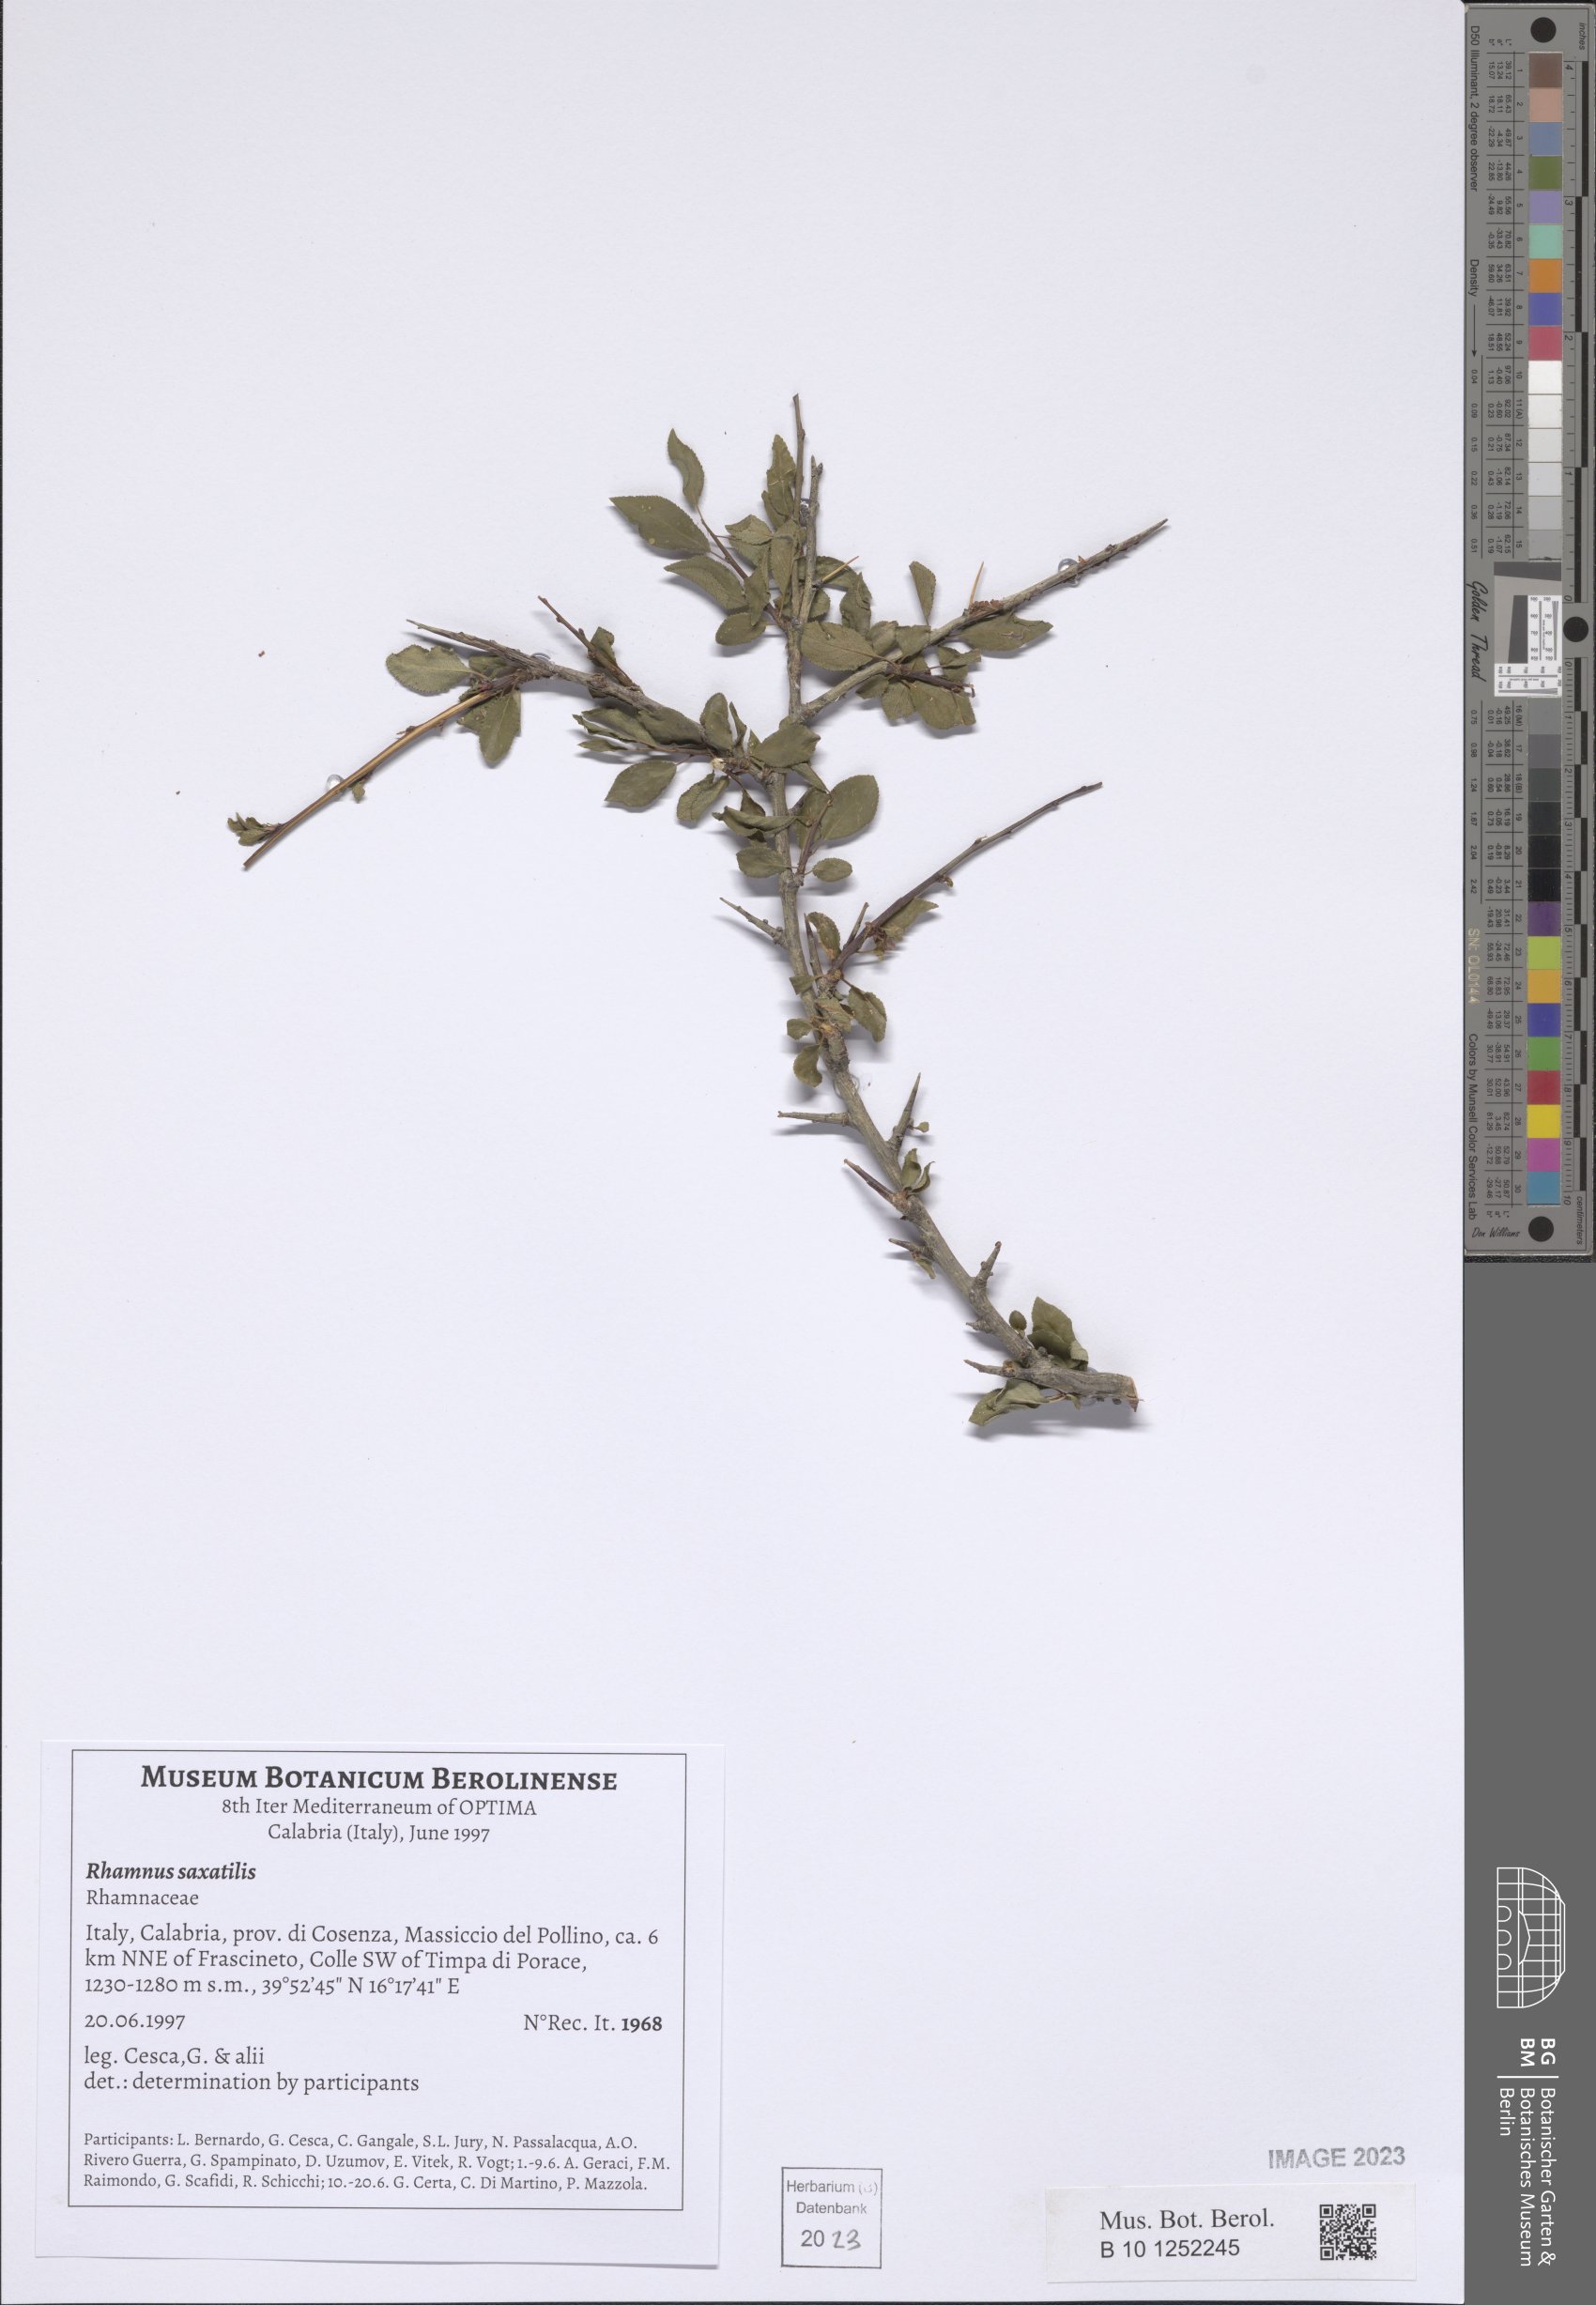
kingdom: Plantae
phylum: Tracheophyta
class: Magnoliopsida
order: Rosales
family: Rhamnaceae
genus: Rhamnus
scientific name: Rhamnus saxatilis
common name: Rock buckthorn
